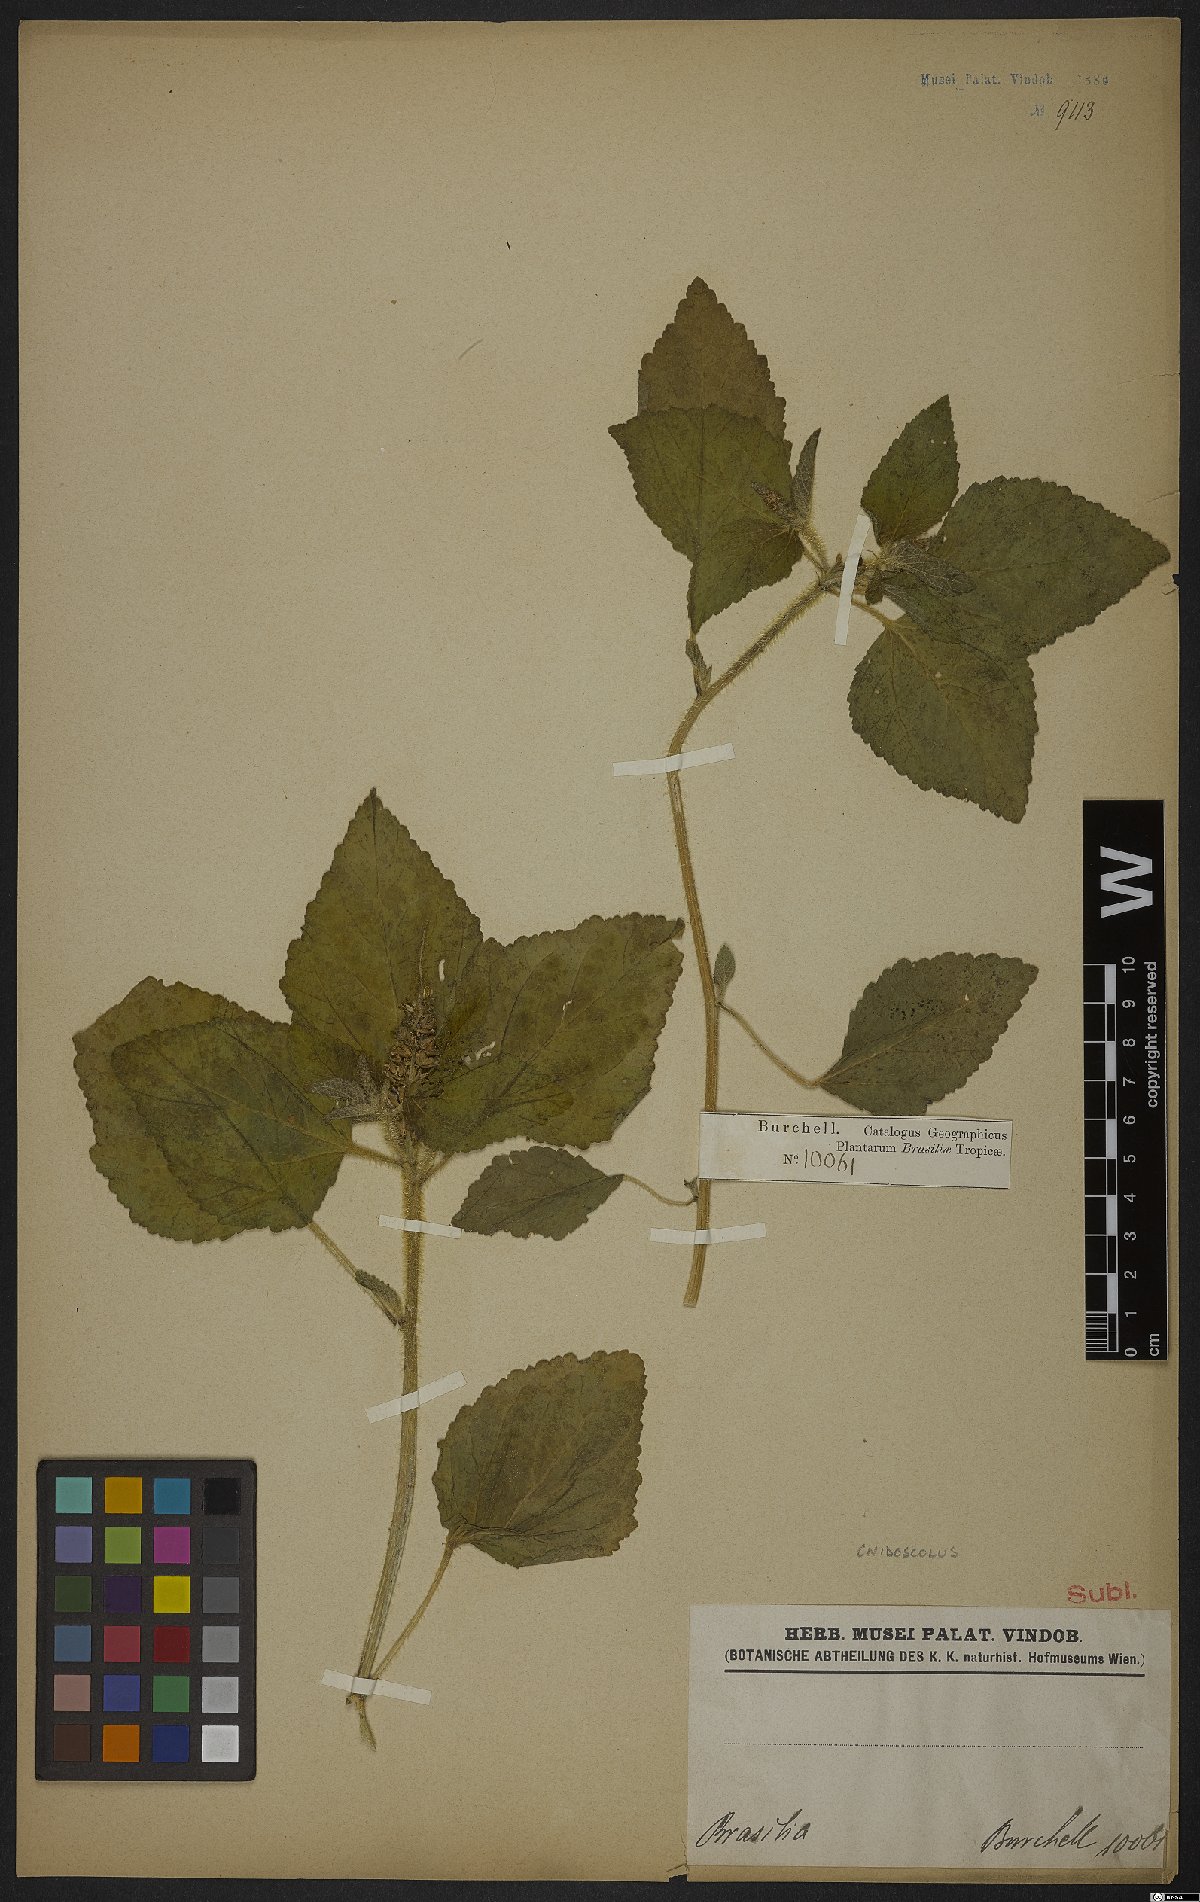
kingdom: Plantae
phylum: Tracheophyta
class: Magnoliopsida
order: Malpighiales
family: Euphorbiaceae
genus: Jatropha
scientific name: Jatropha
